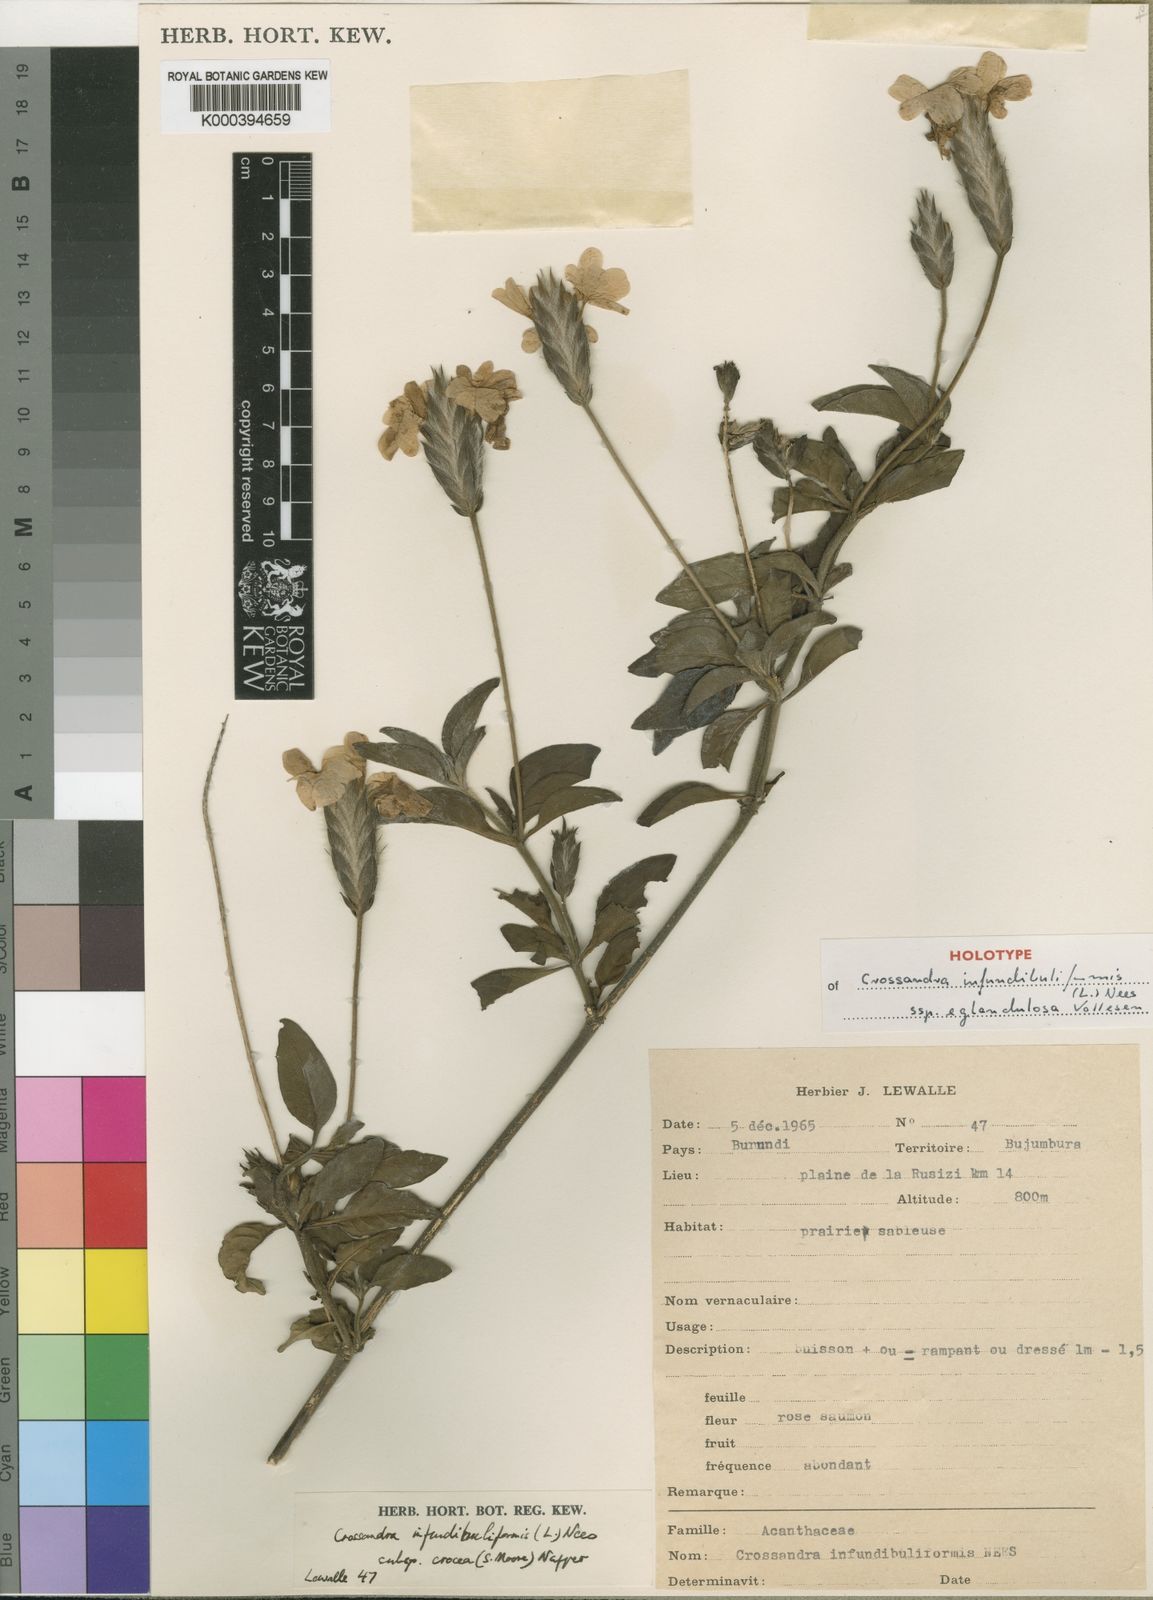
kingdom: Plantae
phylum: Tracheophyta
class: Magnoliopsida
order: Lamiales
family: Acanthaceae
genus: Crossandra
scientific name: Crossandra infundibuliformis
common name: Firecracker-flower
